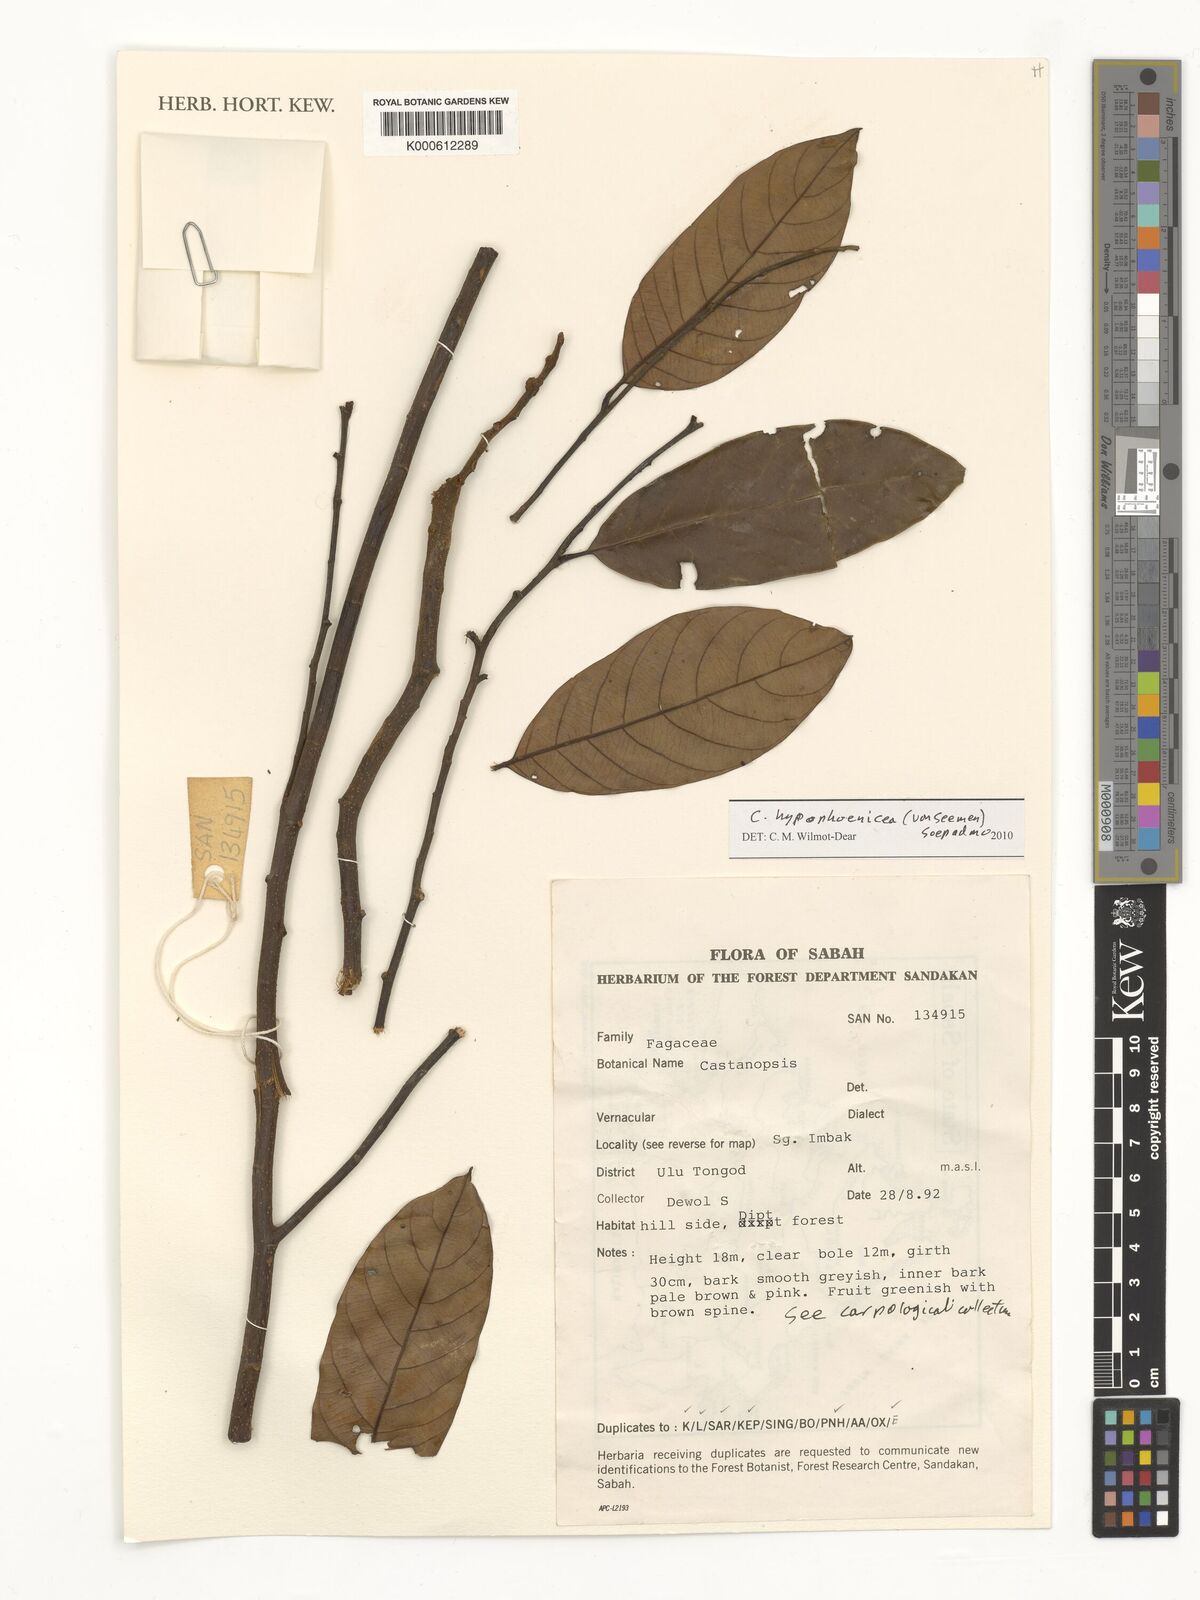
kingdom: Plantae
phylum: Tracheophyta
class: Magnoliopsida
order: Fagales
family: Fagaceae
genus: Castanopsis
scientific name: Castanopsis hypophoenicea
